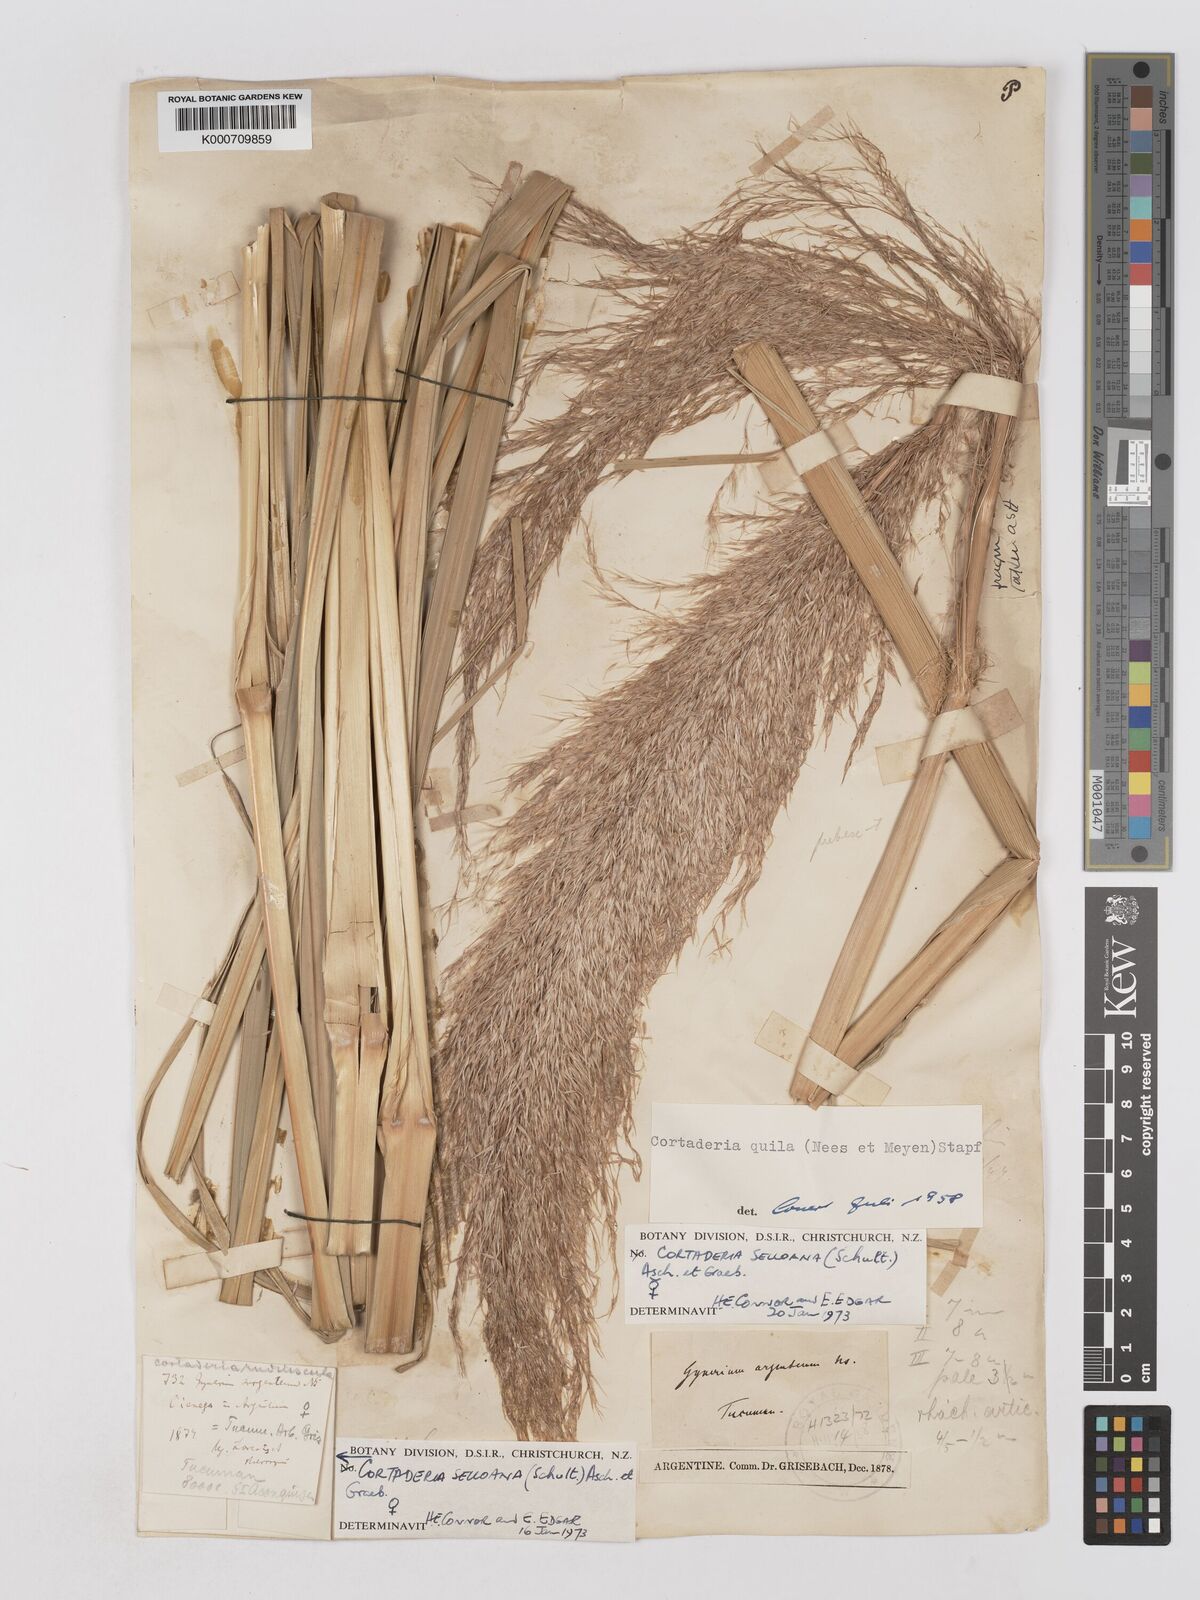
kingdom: Plantae
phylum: Tracheophyta
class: Liliopsida
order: Poales
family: Poaceae
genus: Cortaderia
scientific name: Cortaderia selloana
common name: Uruguayan pampas grass
